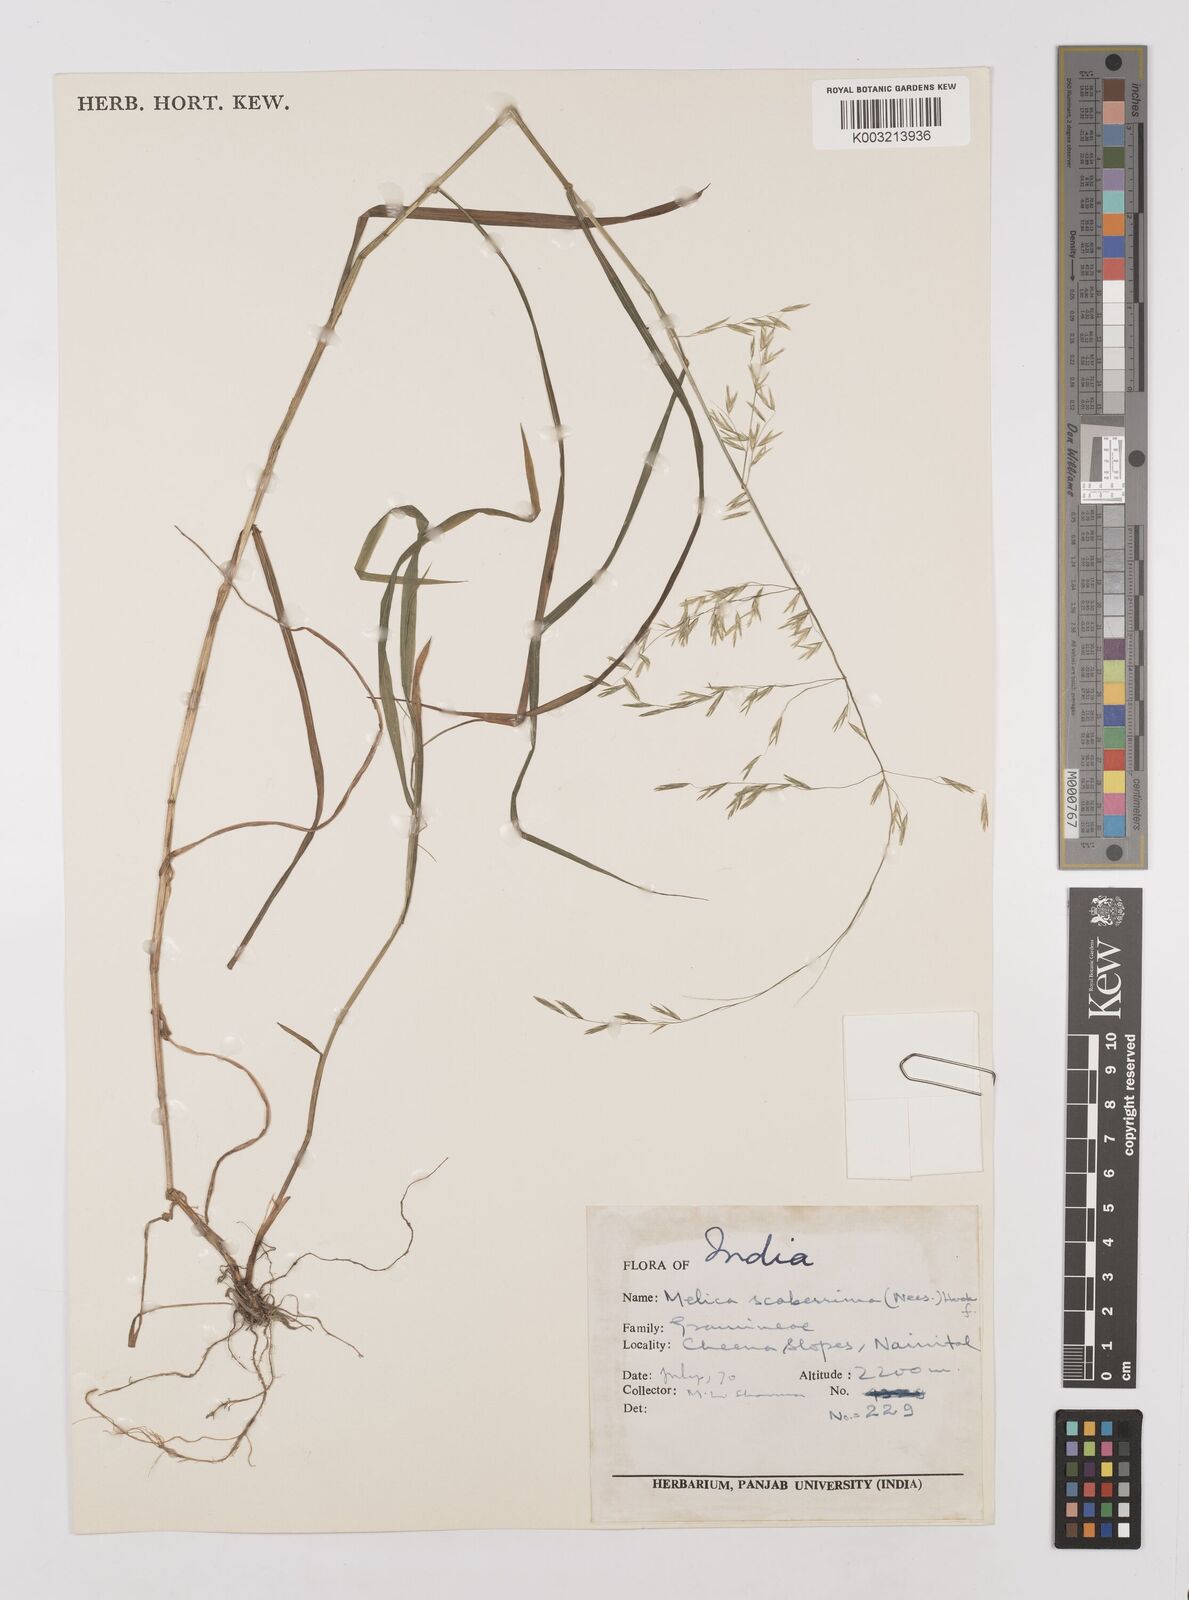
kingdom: Plantae
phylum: Tracheophyta
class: Liliopsida
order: Poales
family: Poaceae
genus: Melica
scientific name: Melica scaberrima
